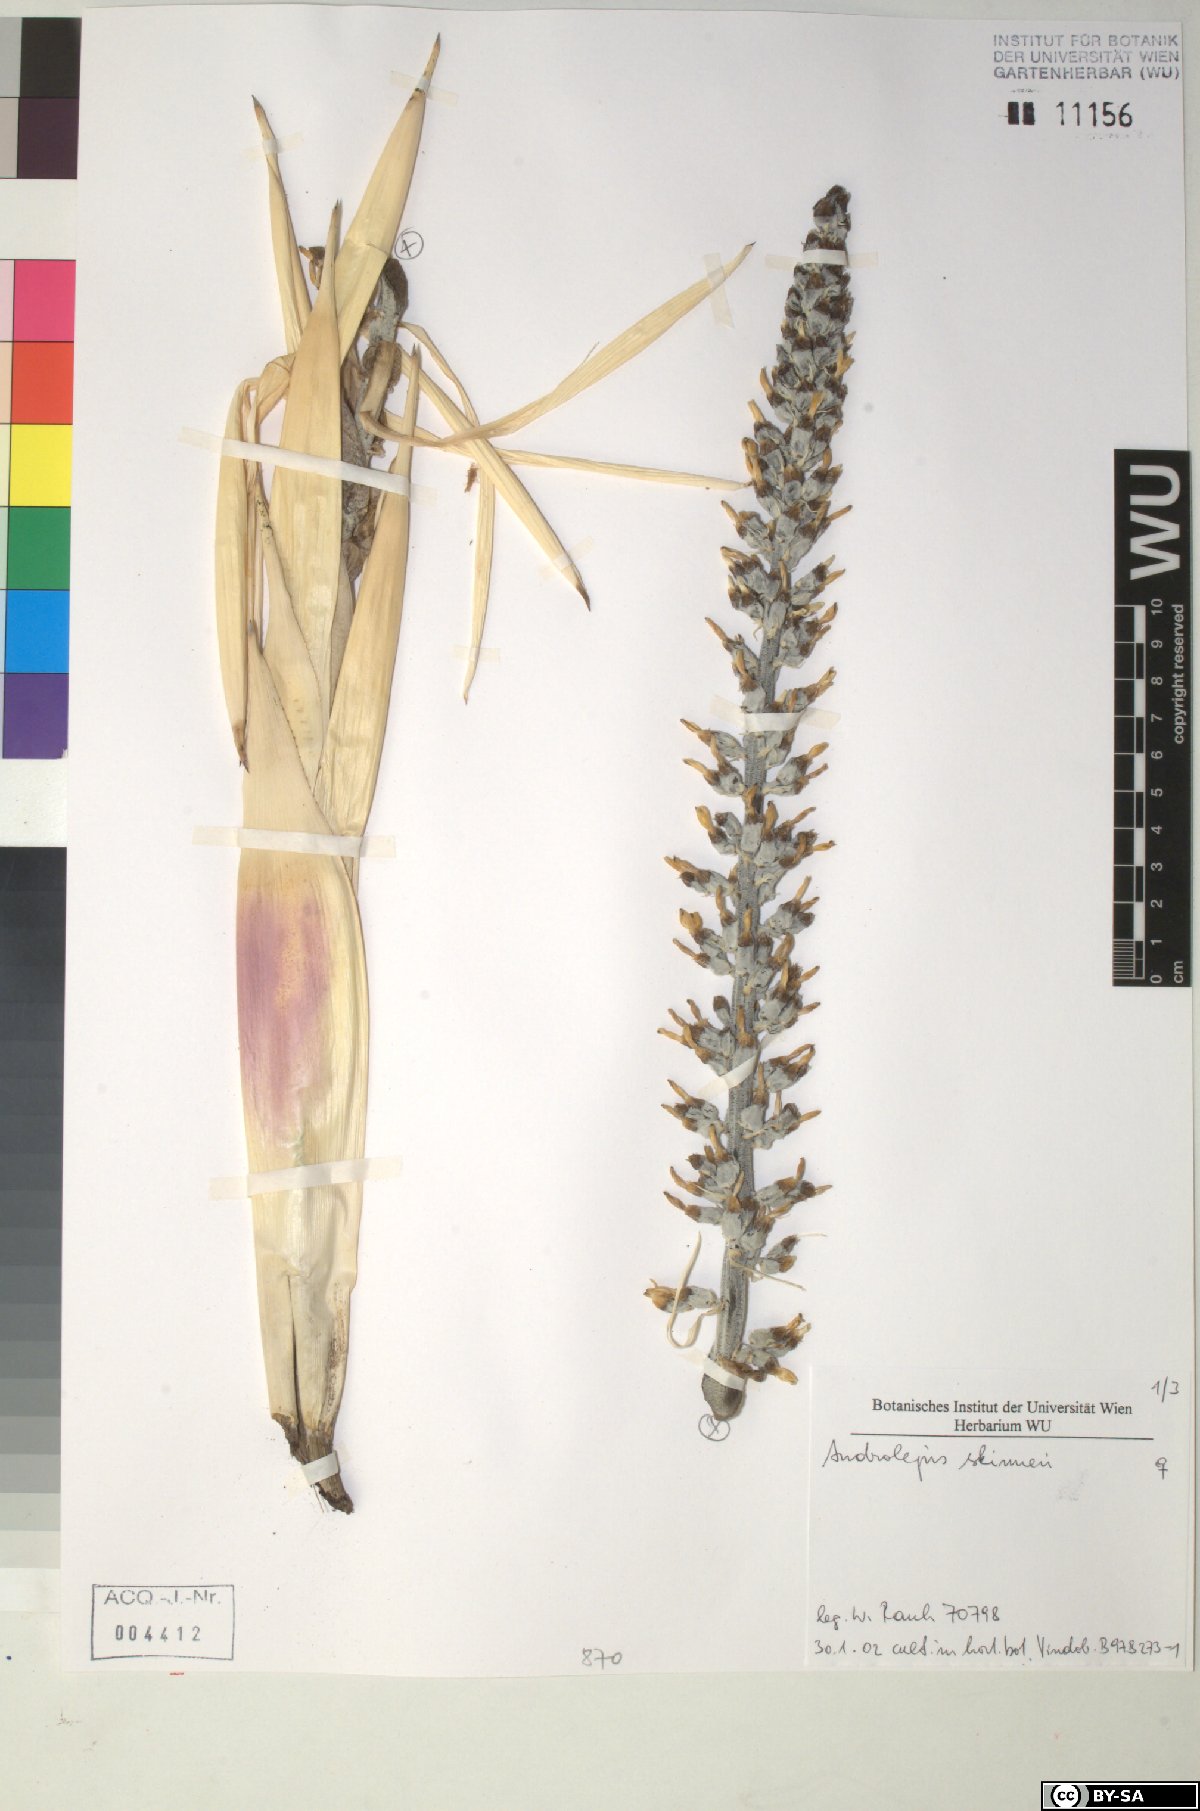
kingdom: Plantae
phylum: Tracheophyta
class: Liliopsida
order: Poales
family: Bromeliaceae
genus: Androlepis
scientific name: Androlepis skinneri
